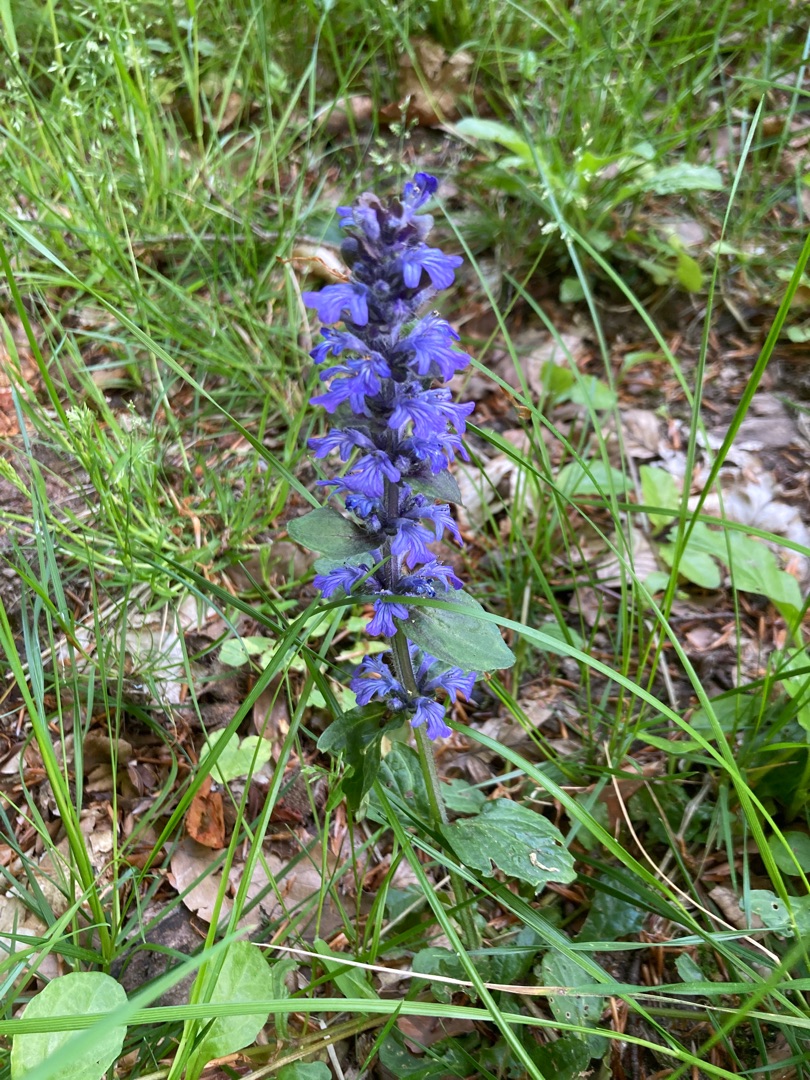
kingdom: Plantae
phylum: Tracheophyta
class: Magnoliopsida
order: Lamiales
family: Lamiaceae
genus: Ajuga
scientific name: Ajuga reptans
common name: Krybende læbeløs
